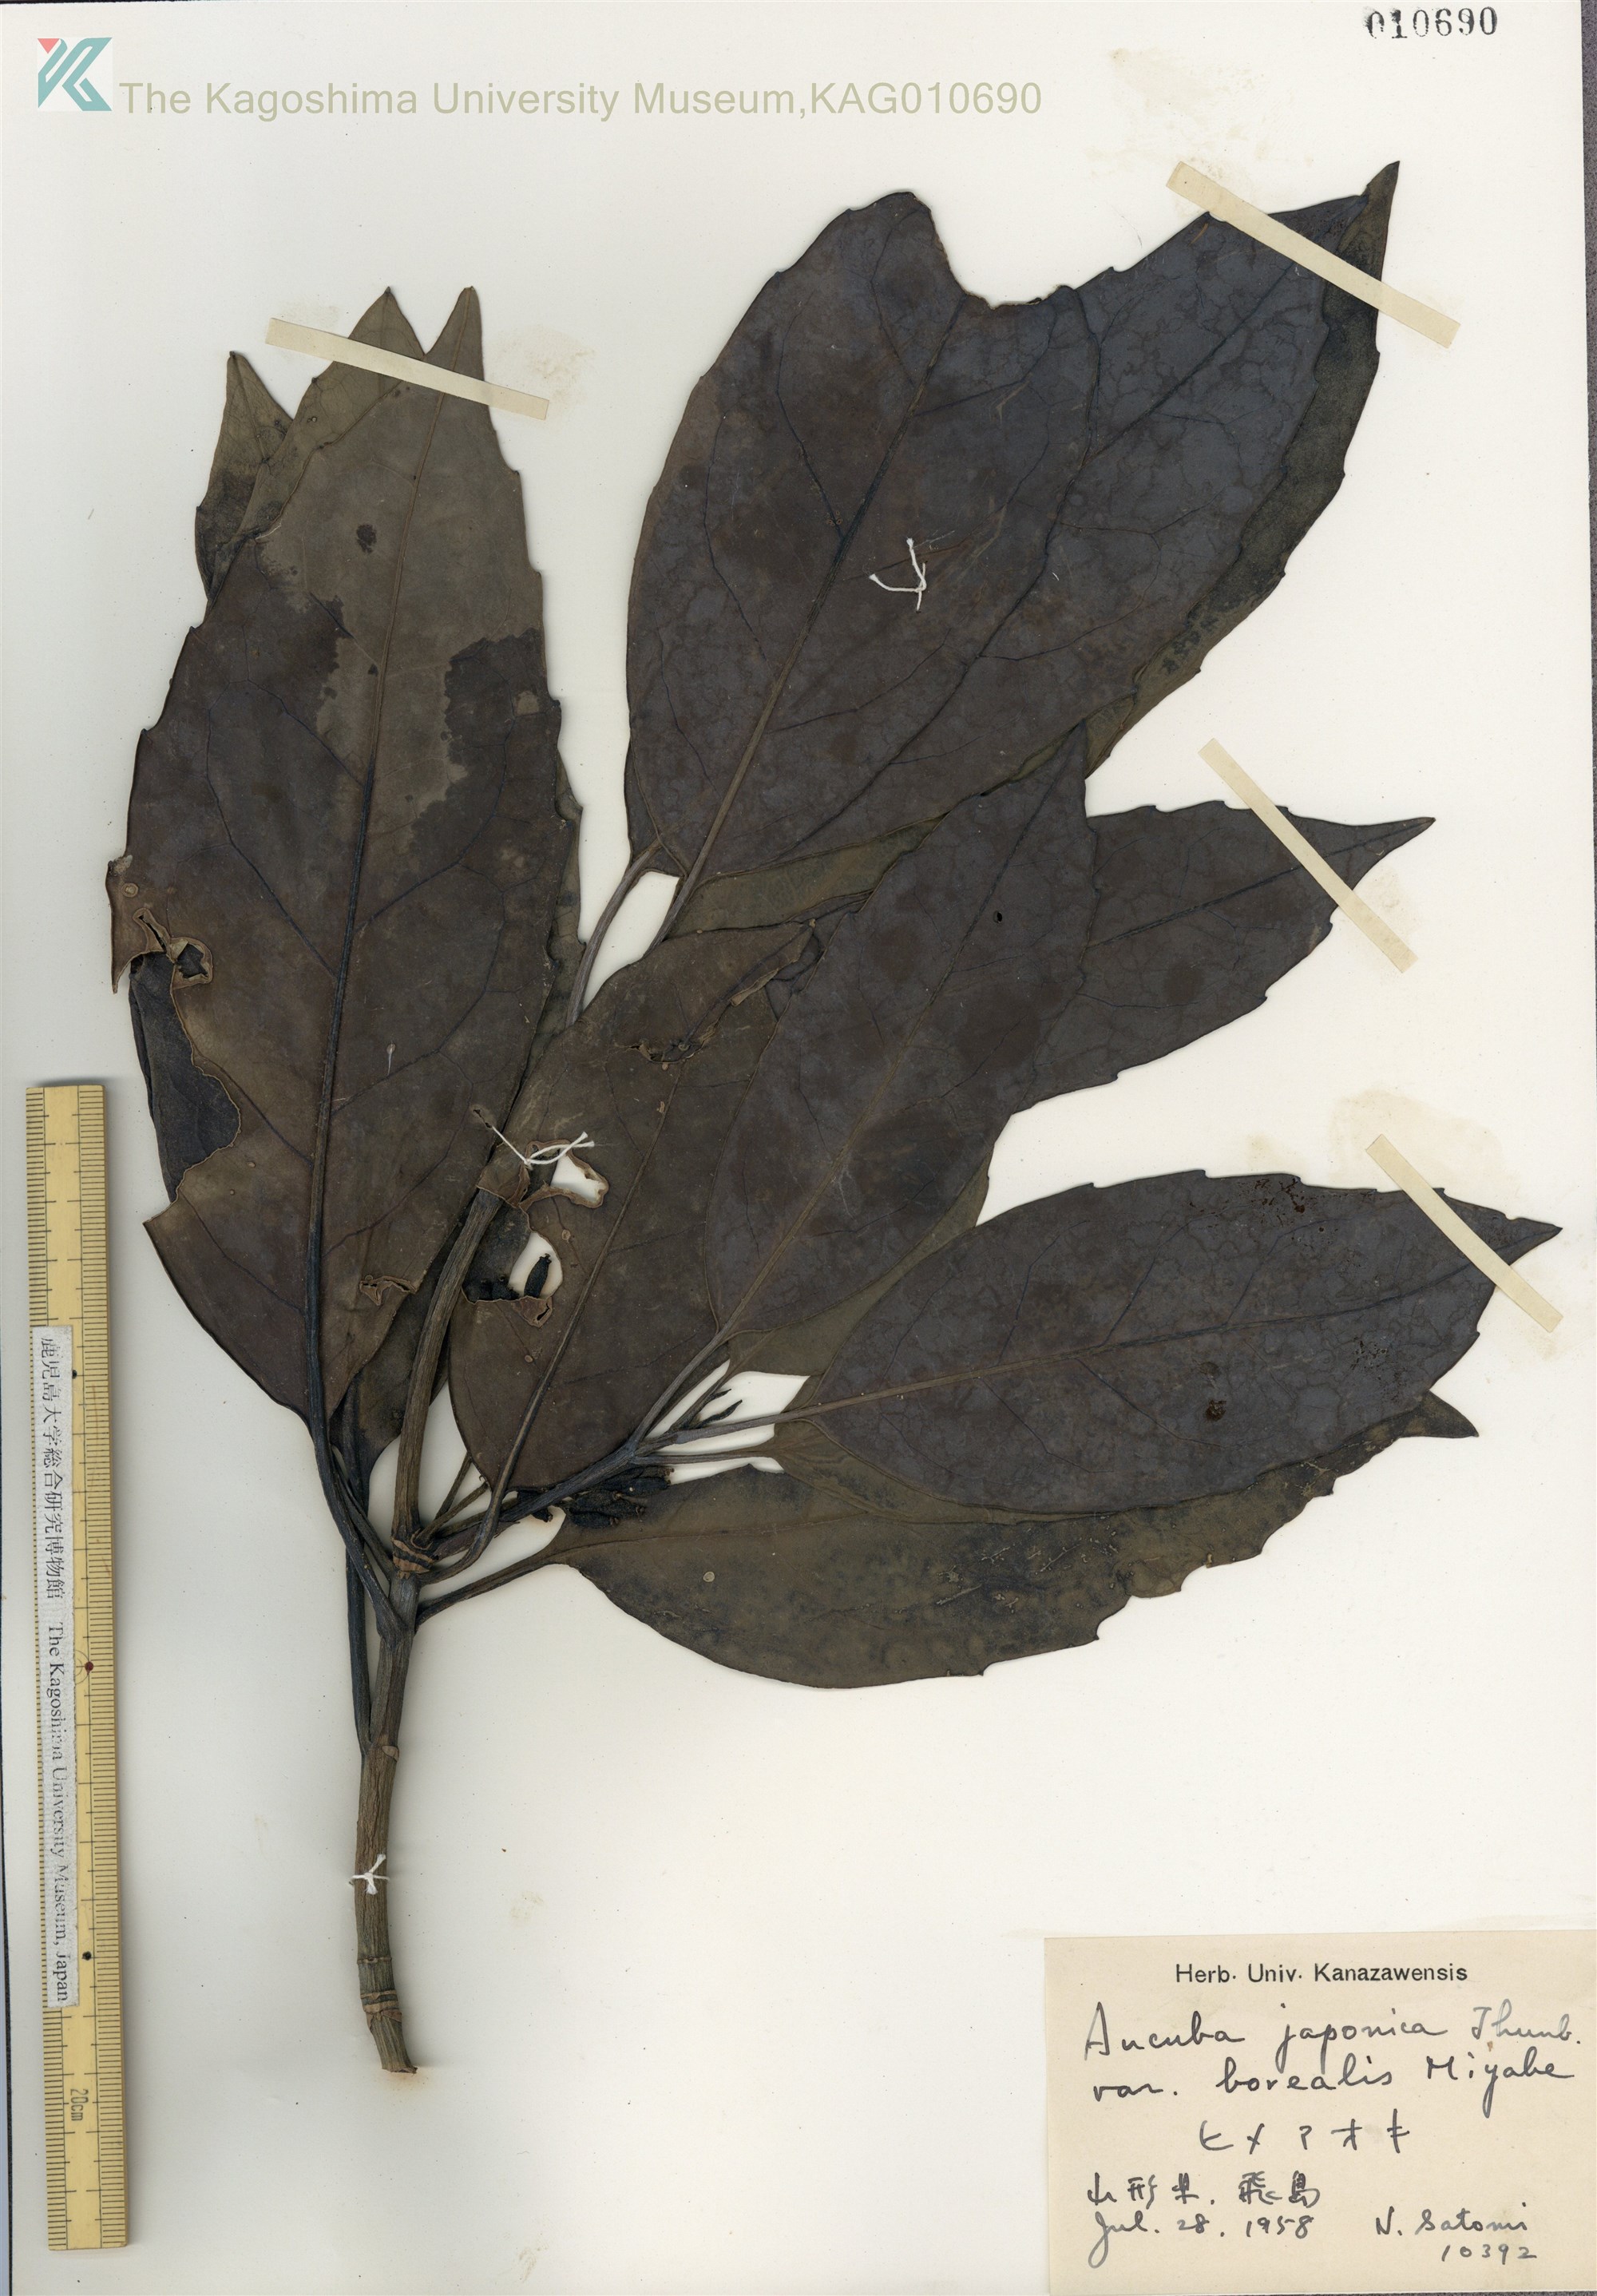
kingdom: Plantae
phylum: Tracheophyta
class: Magnoliopsida
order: Garryales
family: Garryaceae
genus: Aucuba
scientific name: Aucuba japonica
